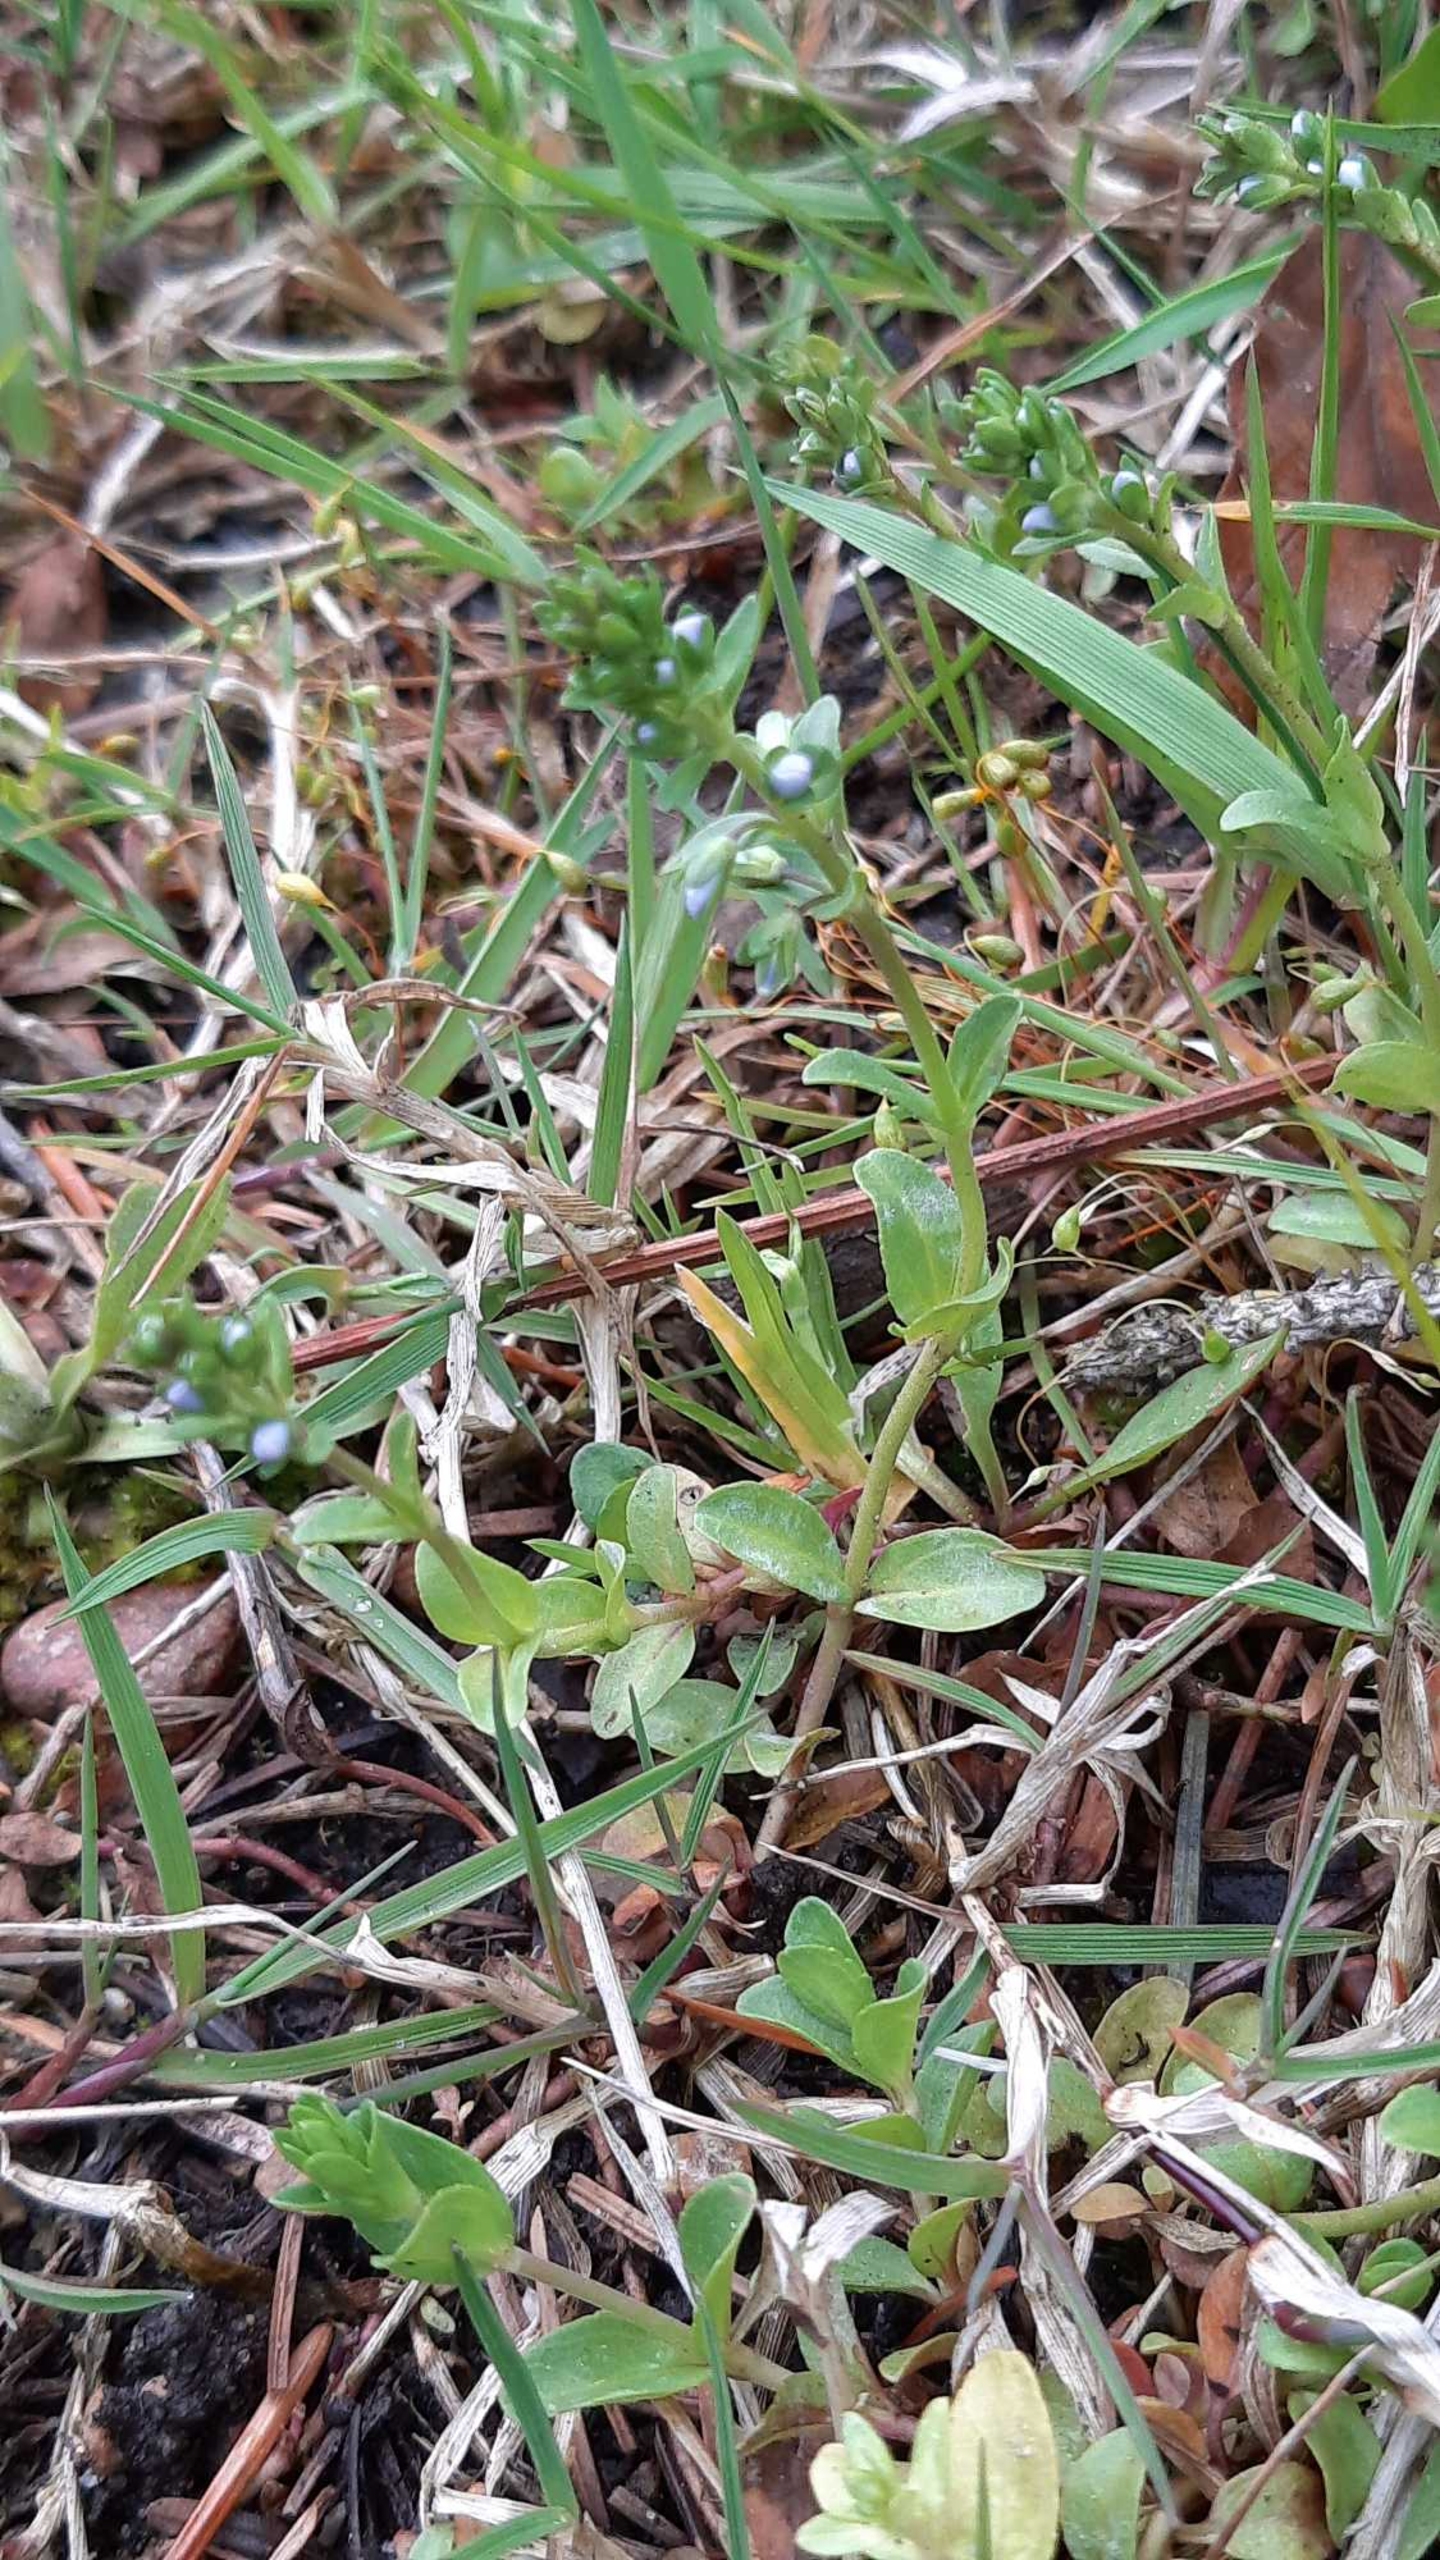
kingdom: Plantae
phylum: Tracheophyta
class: Magnoliopsida
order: Lamiales
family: Plantaginaceae
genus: Veronica
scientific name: Veronica serpyllifolia
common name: Glat ærenpris
